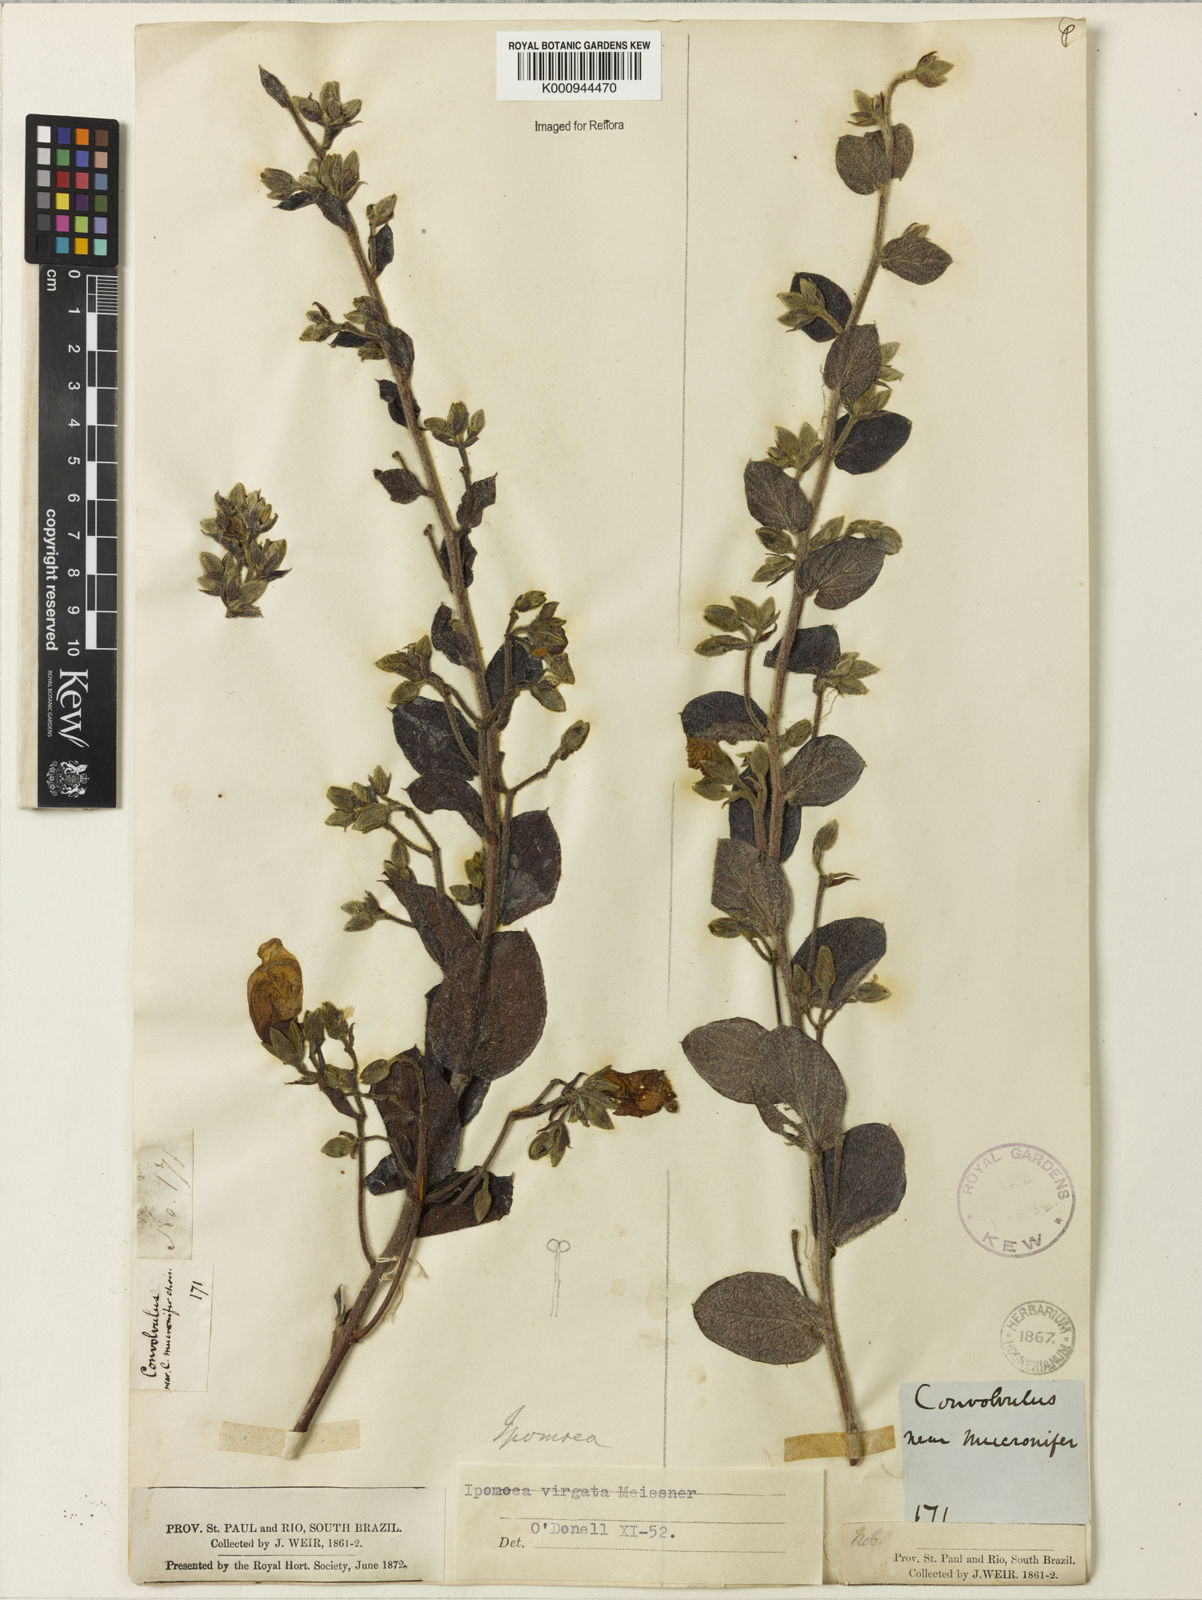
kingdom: Plantae
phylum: Tracheophyta
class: Magnoliopsida
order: Solanales
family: Convolvulaceae
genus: Ipomoea
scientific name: Ipomoea virgata
